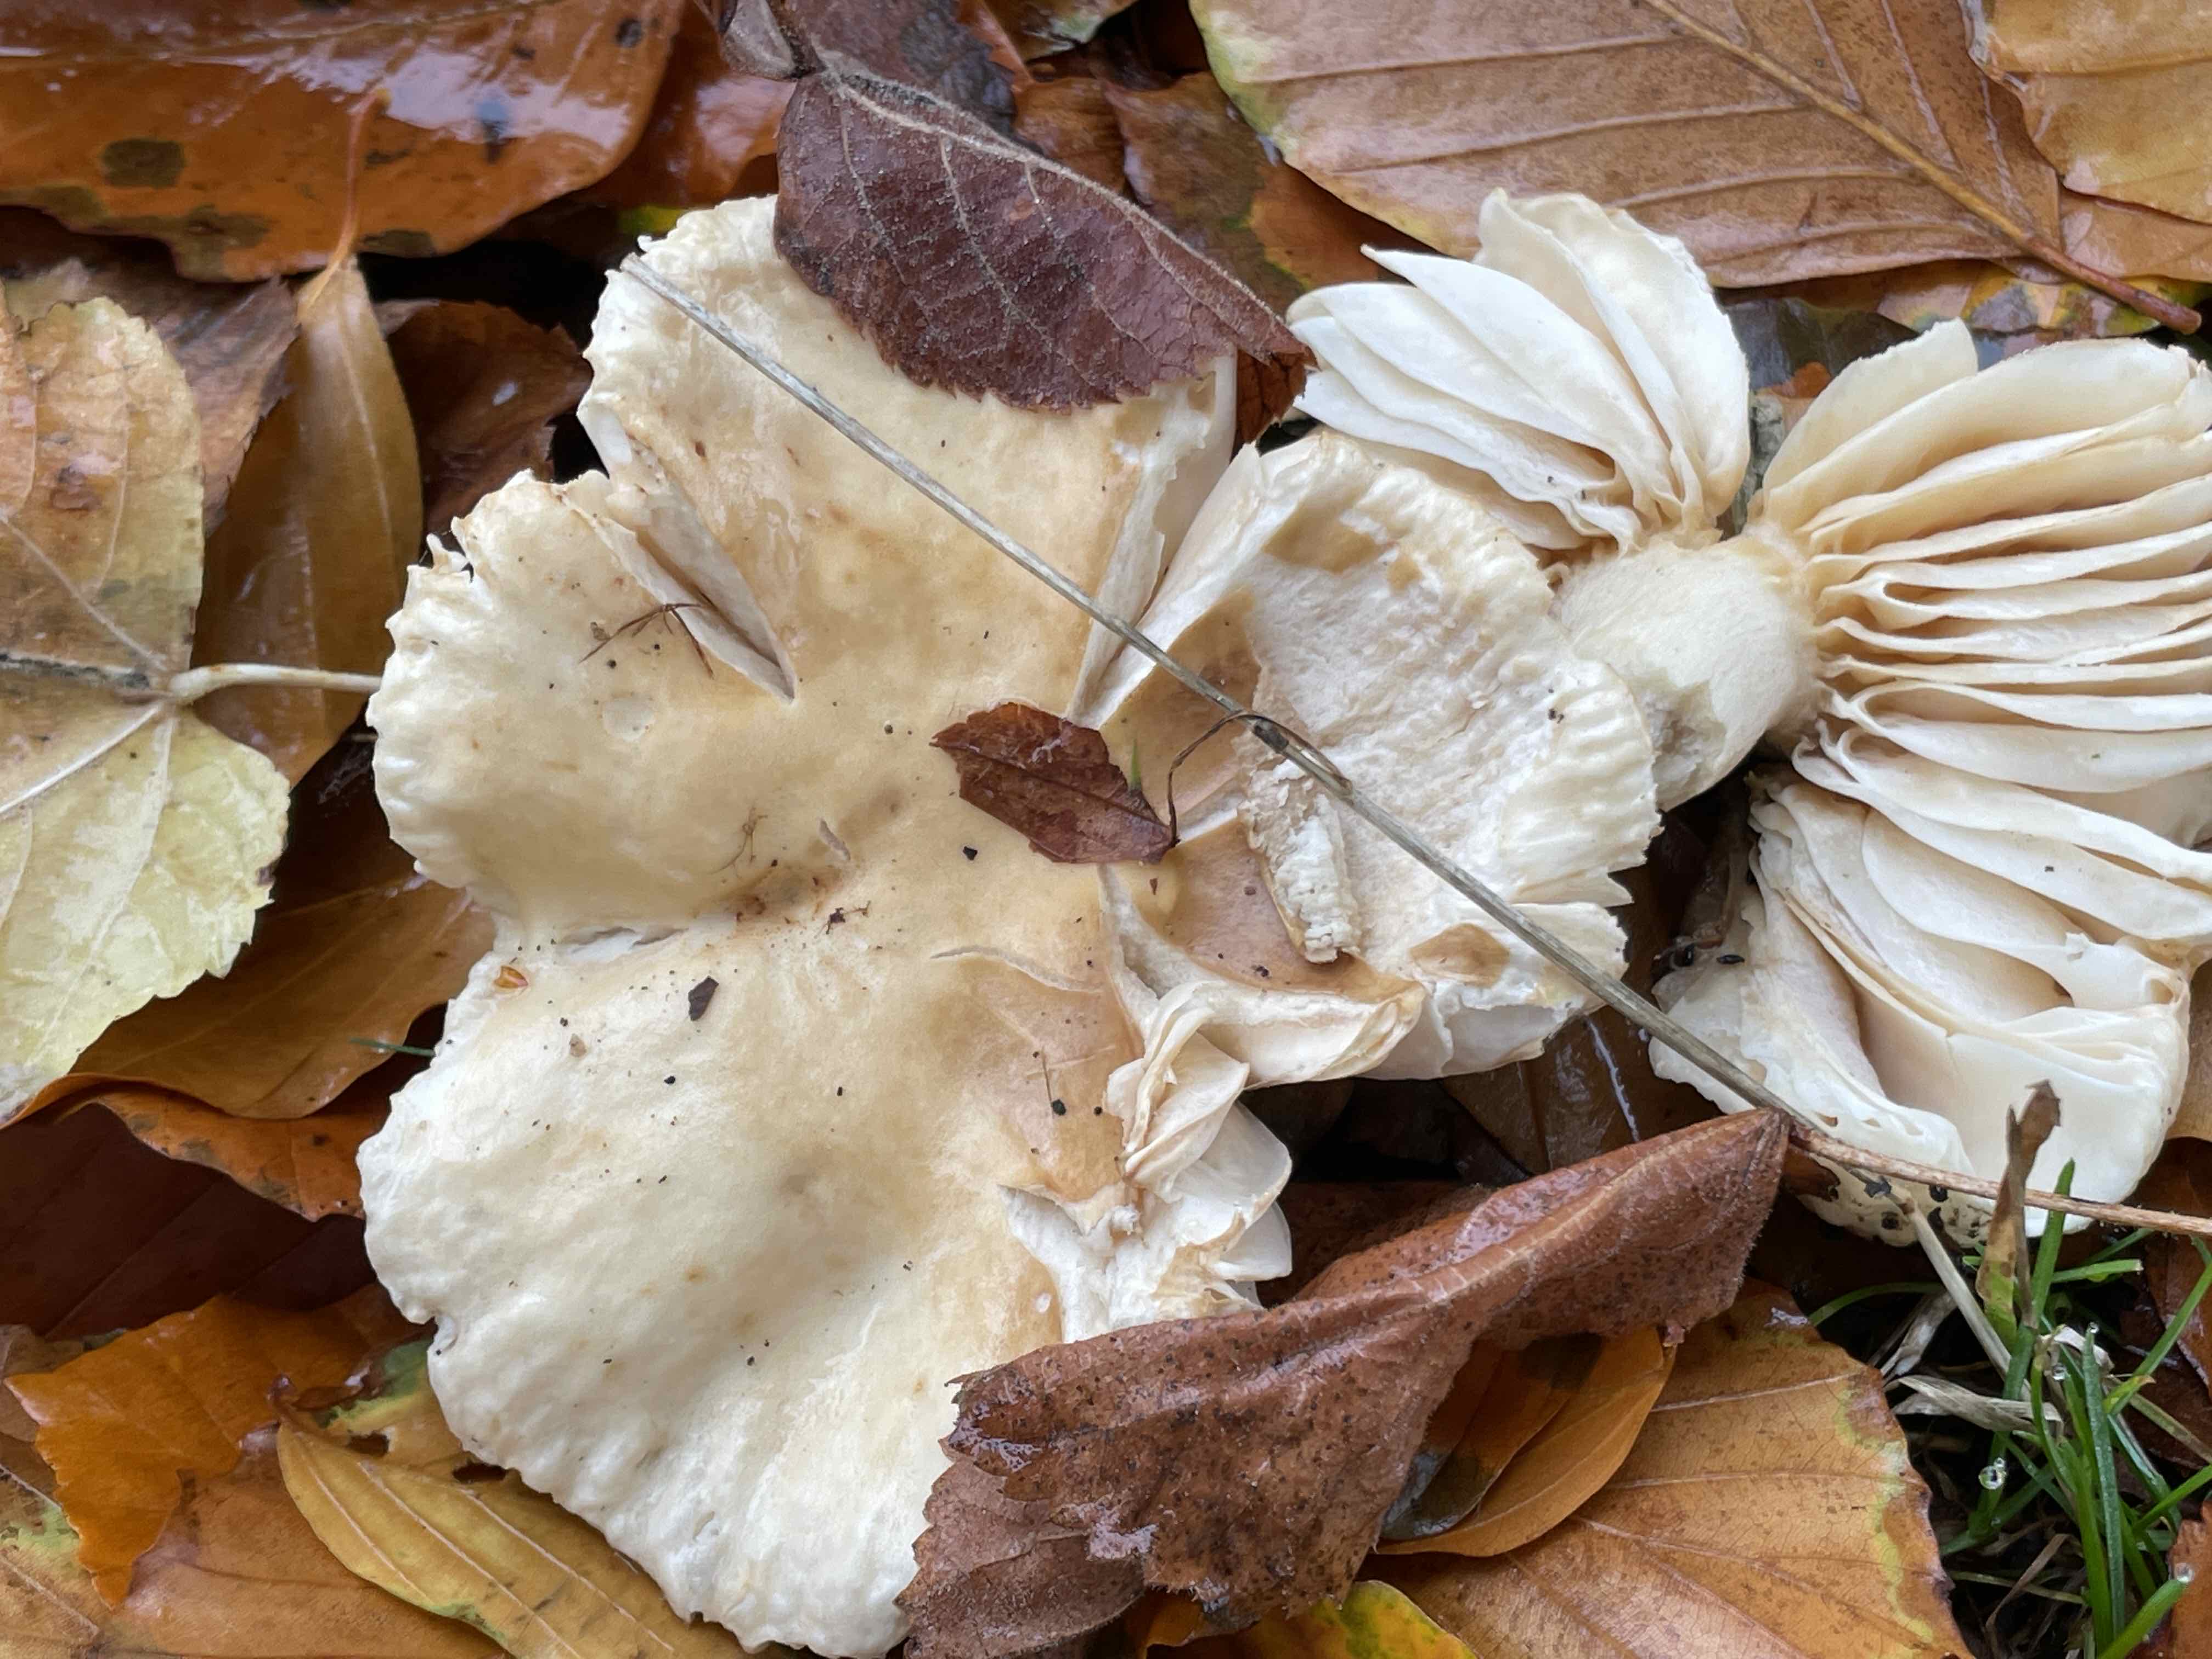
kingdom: Fungi
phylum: Basidiomycota
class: Agaricomycetes
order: Russulales
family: Russulaceae
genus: Russula
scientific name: Russula fellea
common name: galde-skørhat
